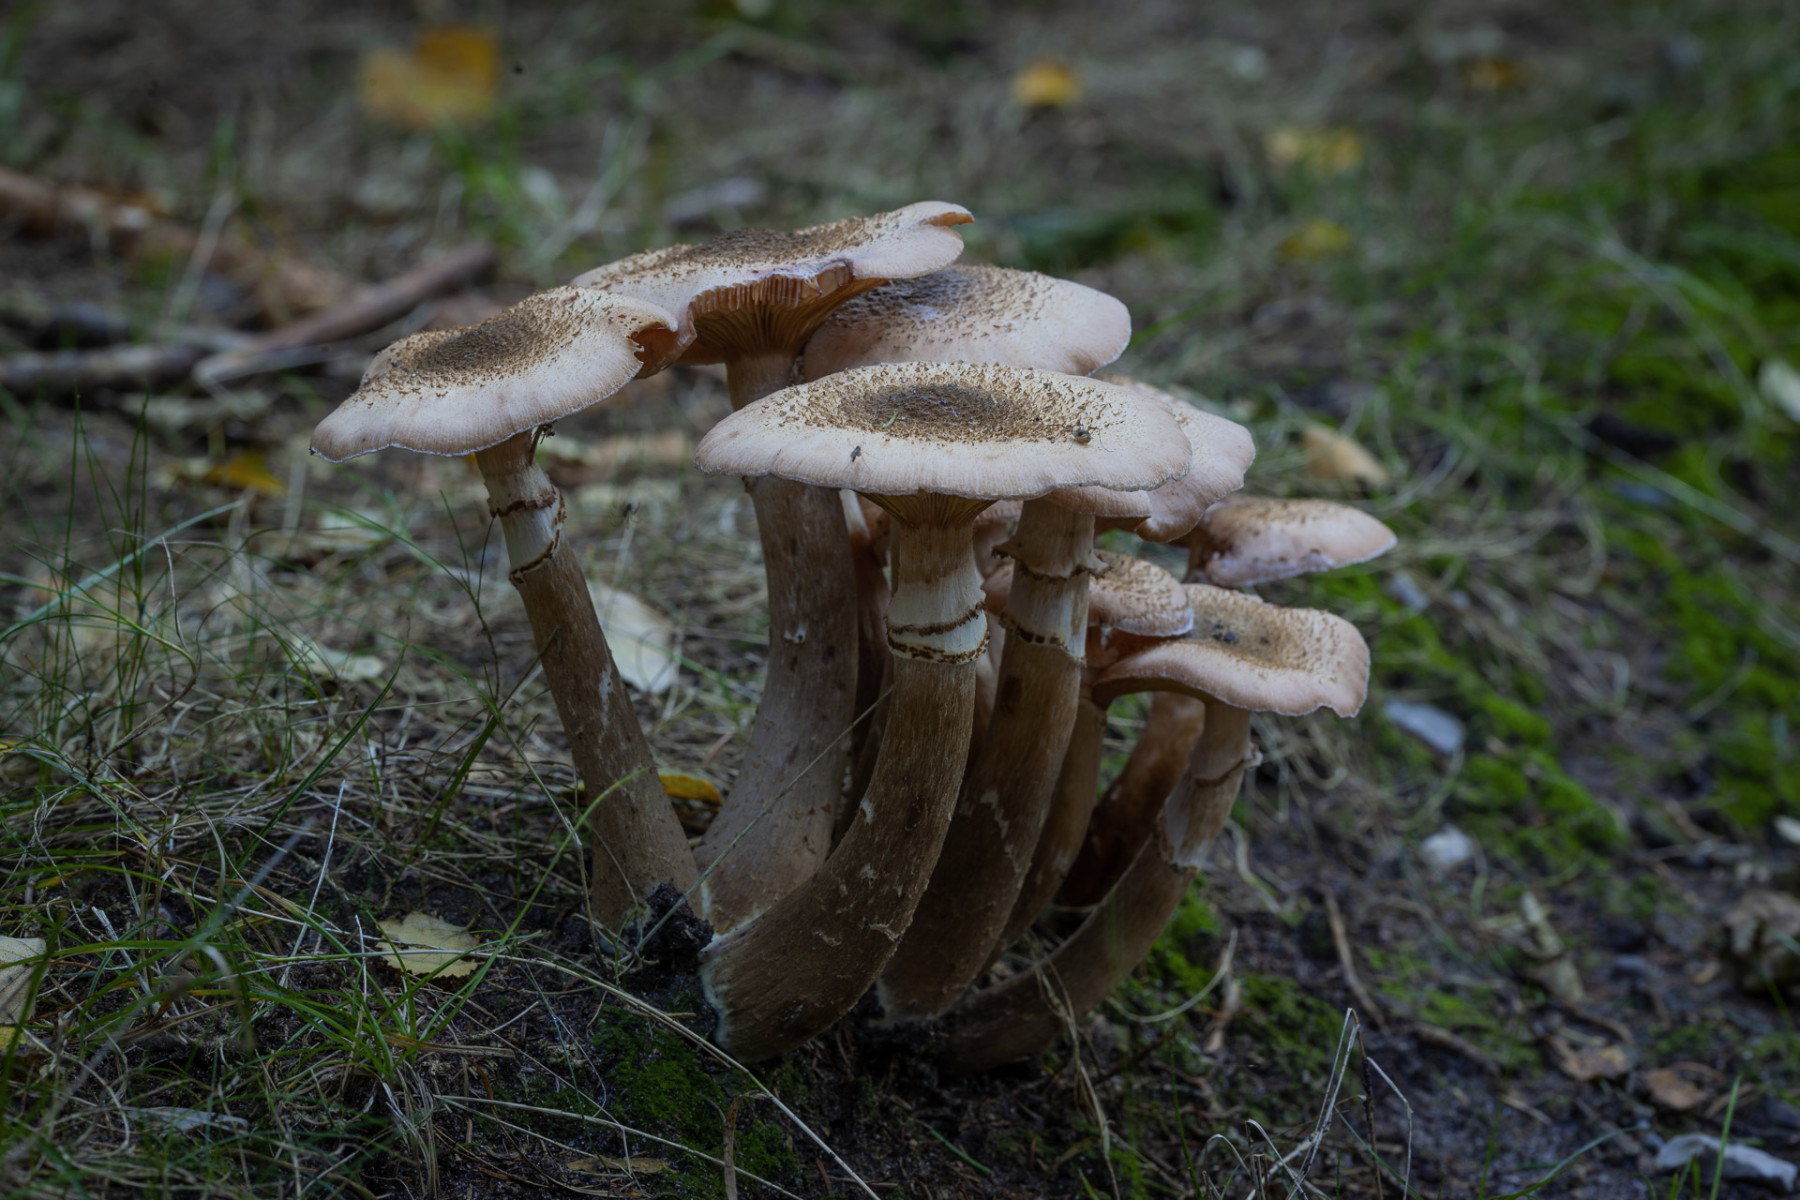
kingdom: Fungi
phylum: Basidiomycota
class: Agaricomycetes
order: Agaricales
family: Physalacriaceae
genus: Armillaria
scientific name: Armillaria ostoyae
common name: mørk honningsvamp
